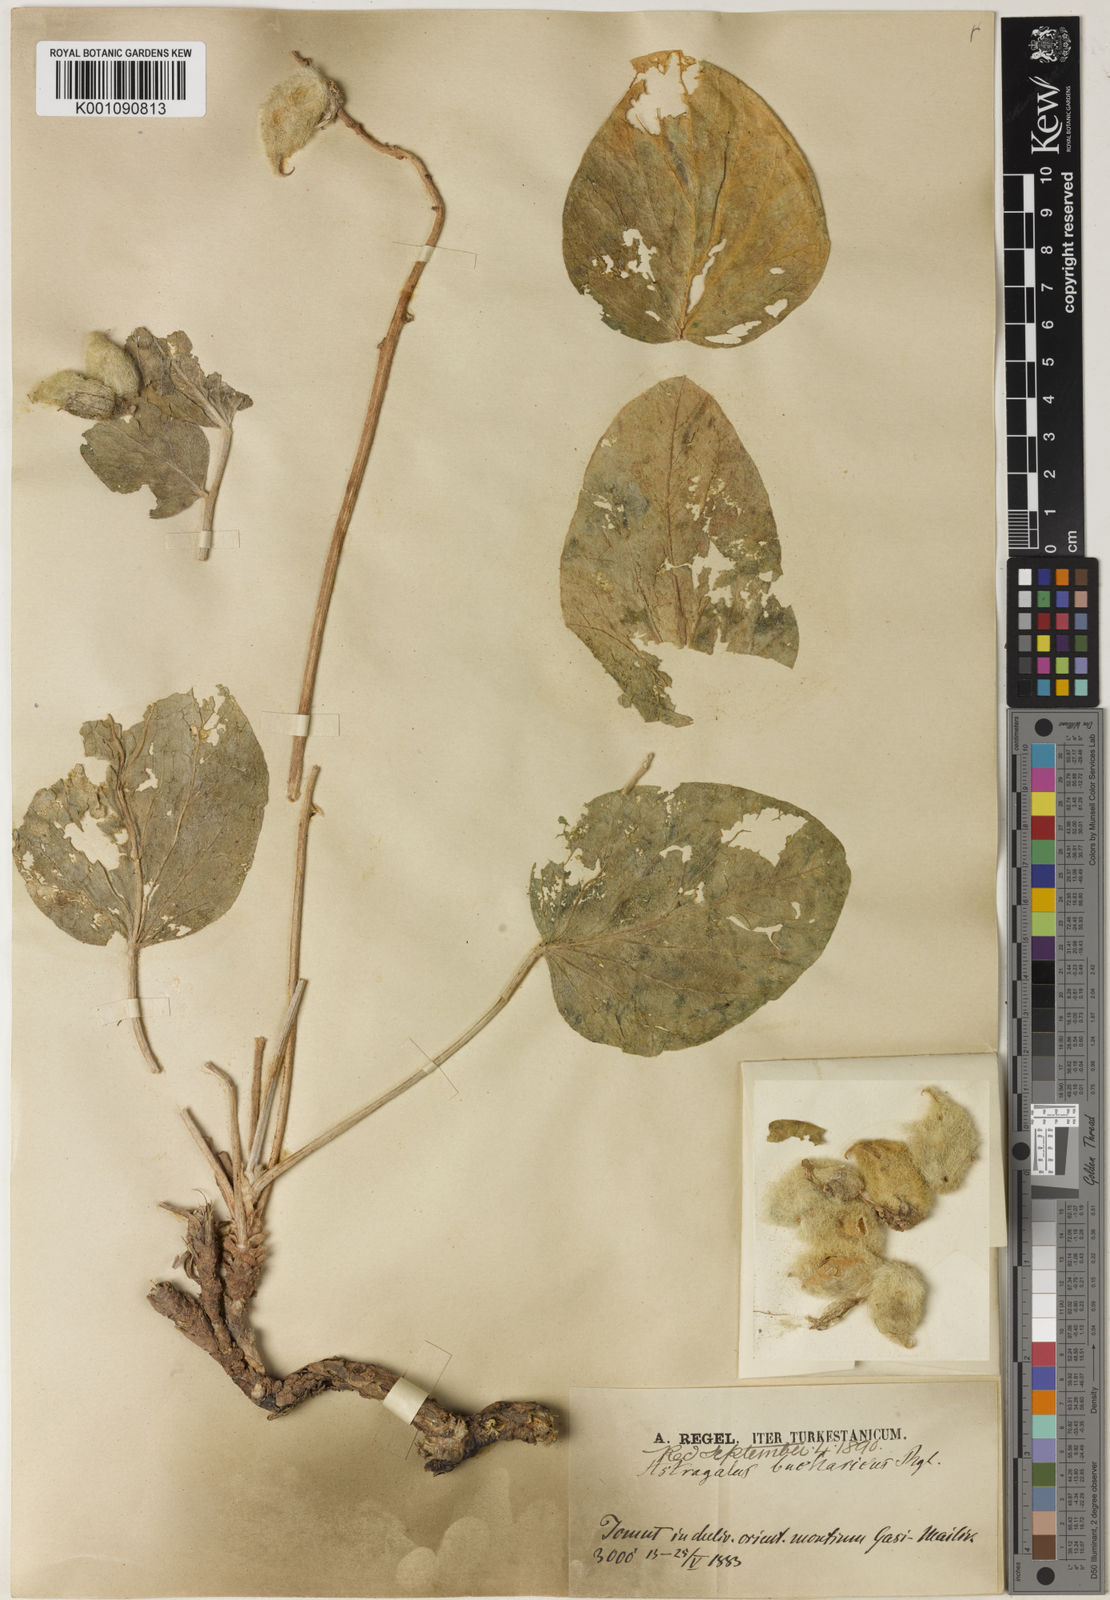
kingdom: Plantae
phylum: Tracheophyta
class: Magnoliopsida
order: Fabales
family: Fabaceae
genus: Astragalus
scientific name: Astragalus
